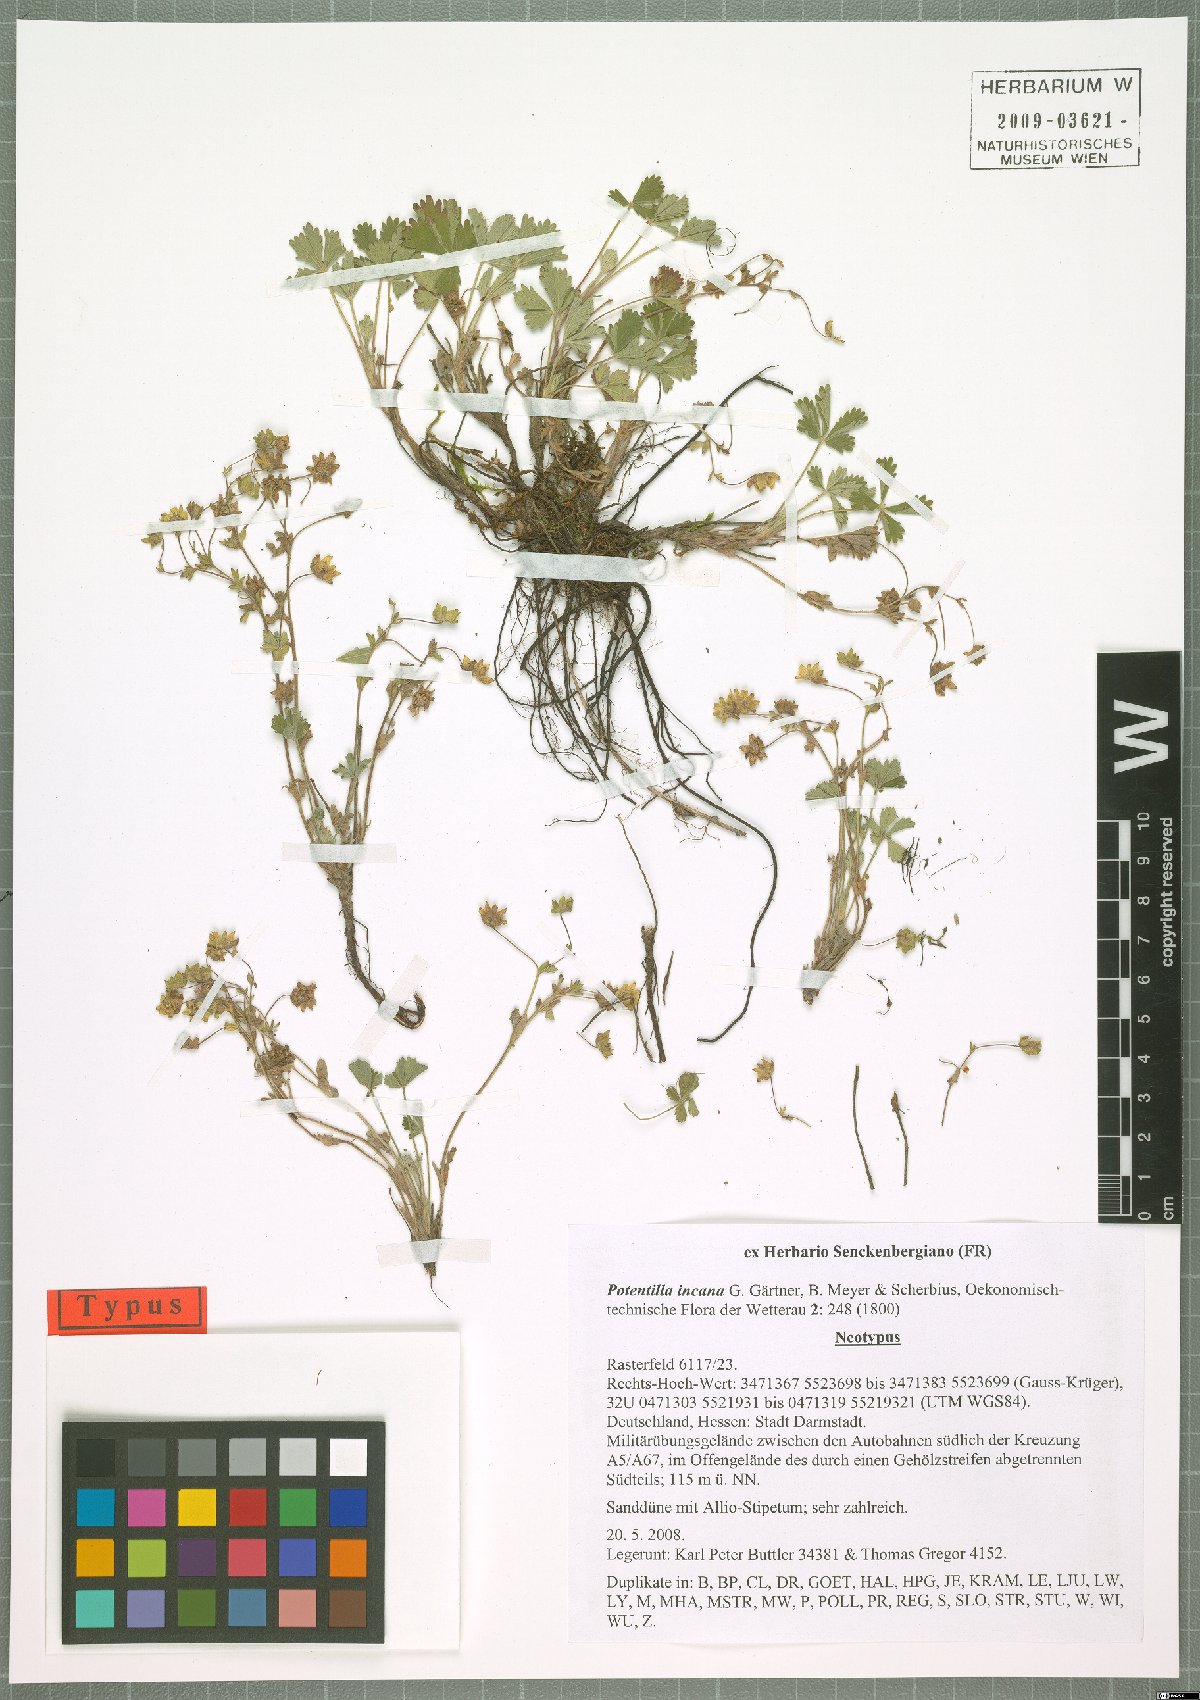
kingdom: Plantae
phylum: Tracheophyta
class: Magnoliopsida
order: Rosales
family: Rosaceae
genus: Potentilla
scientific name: Potentilla cinerea
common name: Ashy cinquefoil
